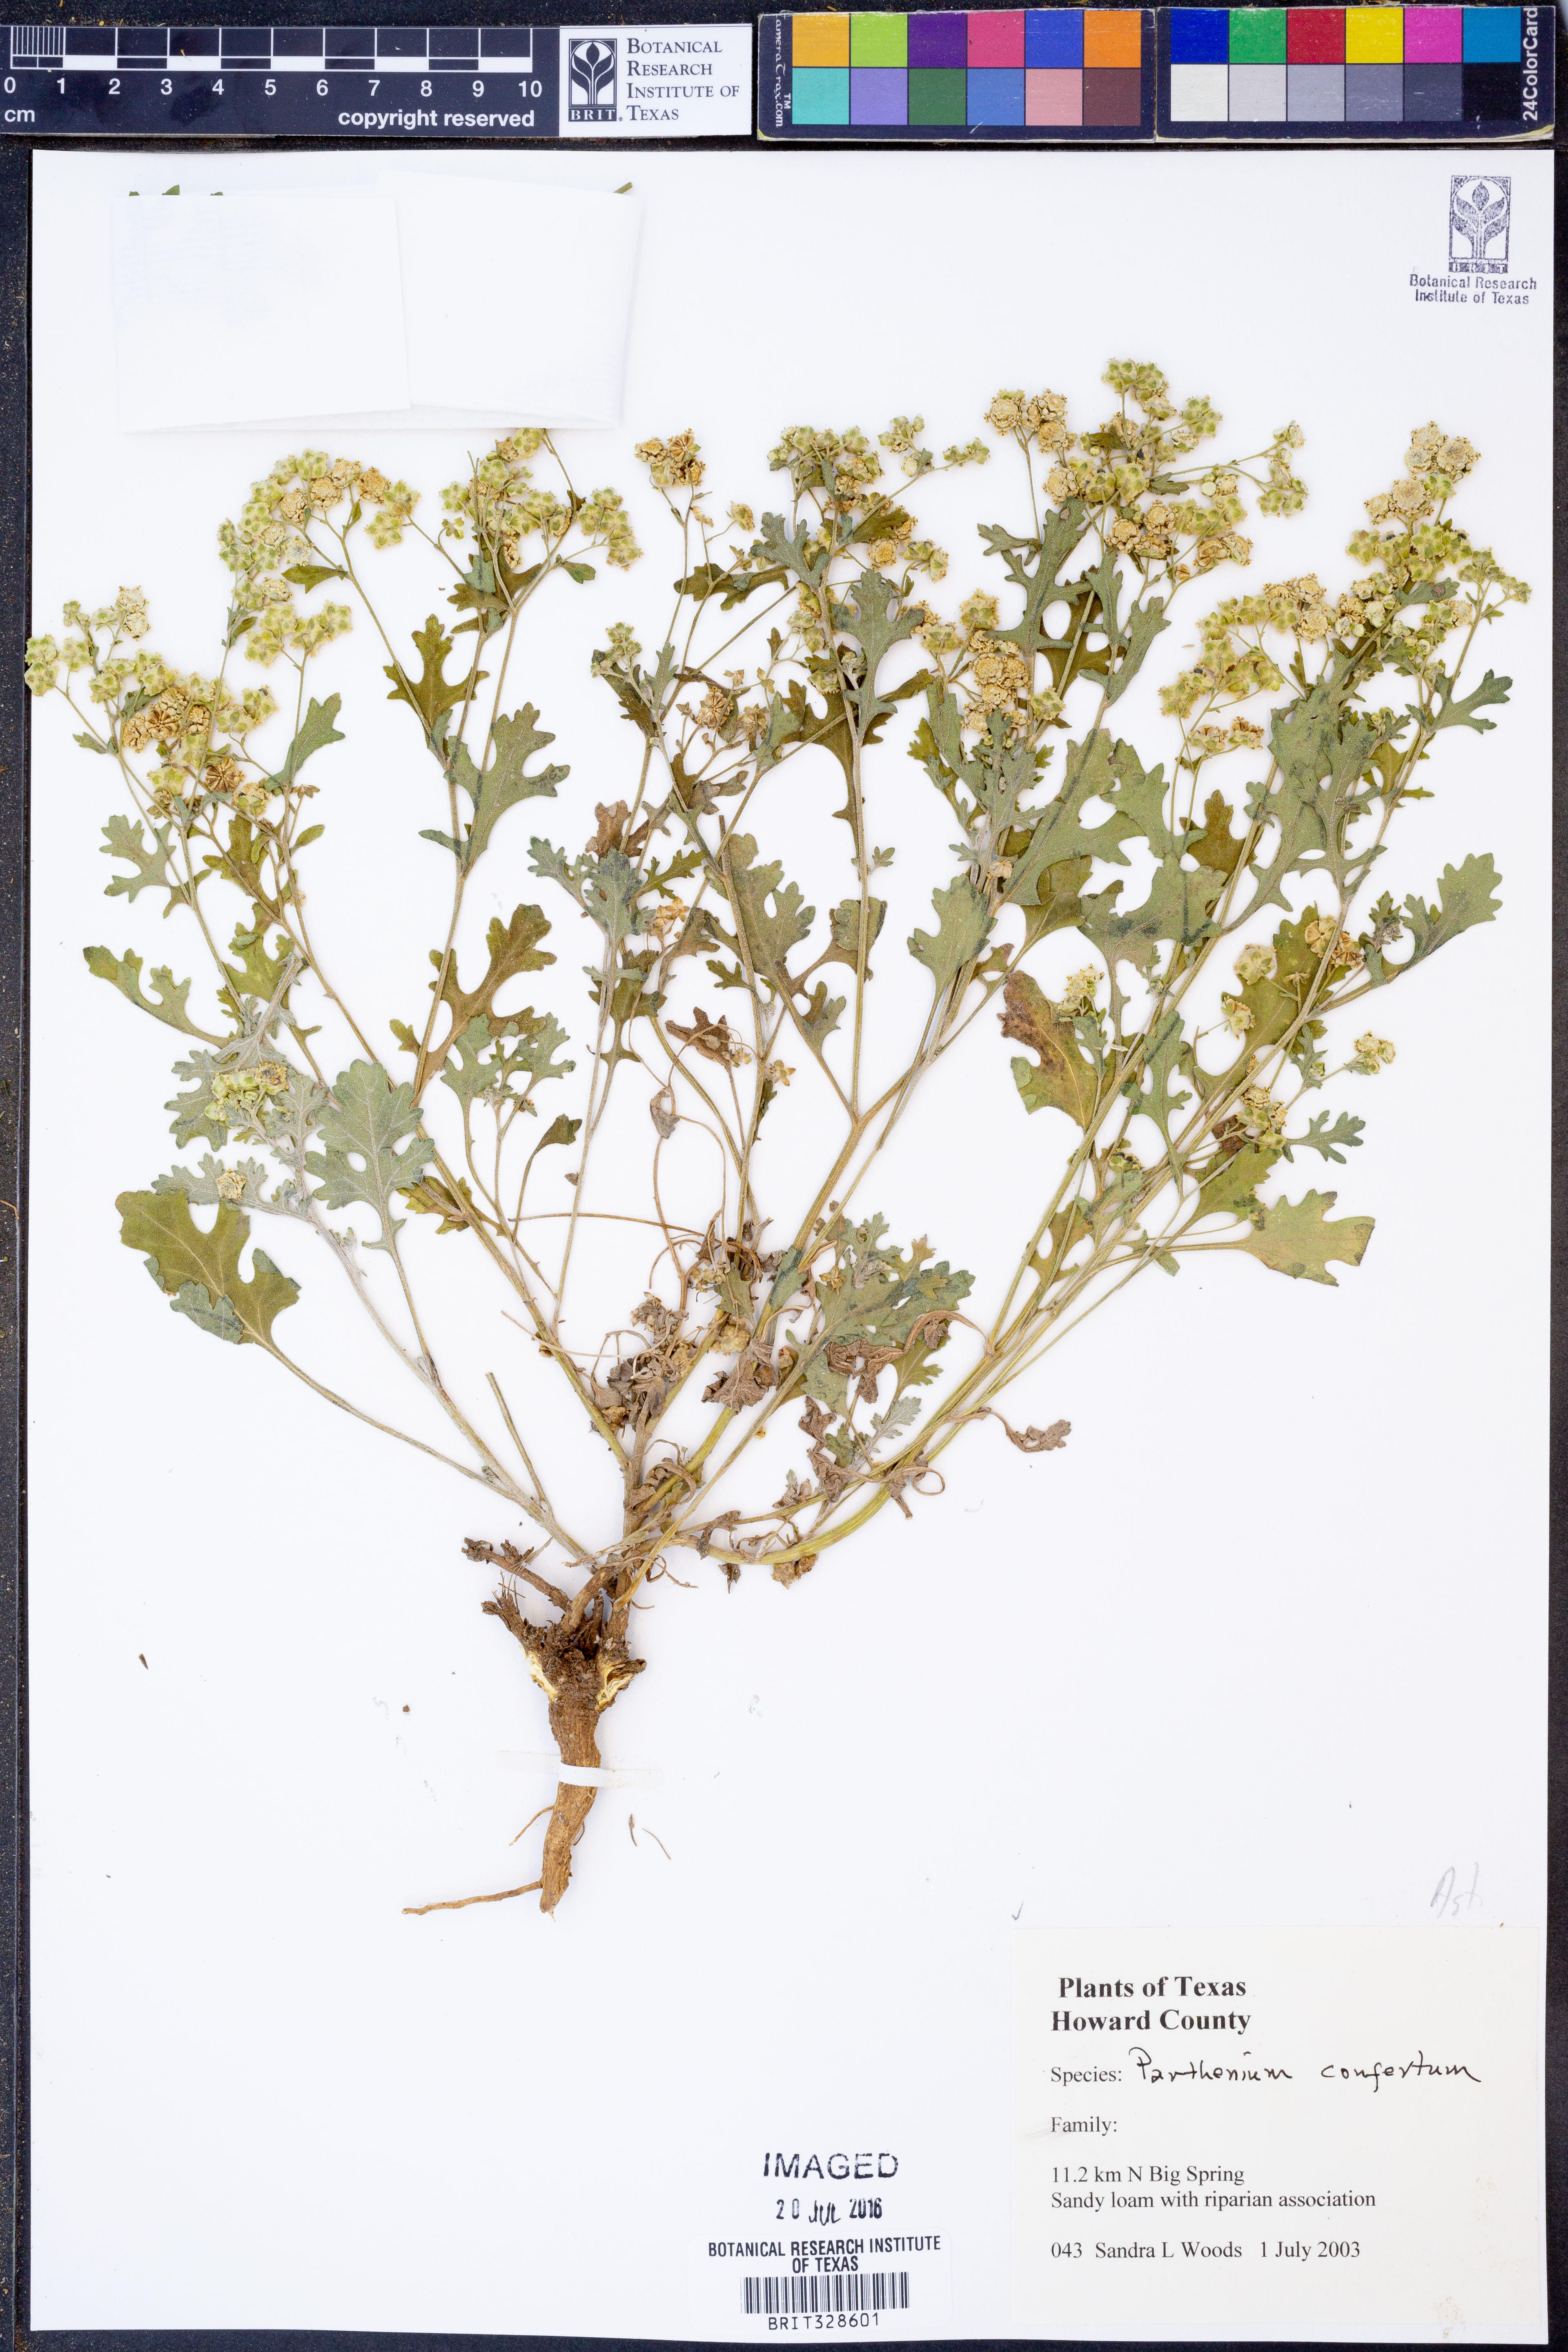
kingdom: Plantae
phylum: Tracheophyta
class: Magnoliopsida
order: Asterales
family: Asteraceae
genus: Parthenium
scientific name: Parthenium confertum
